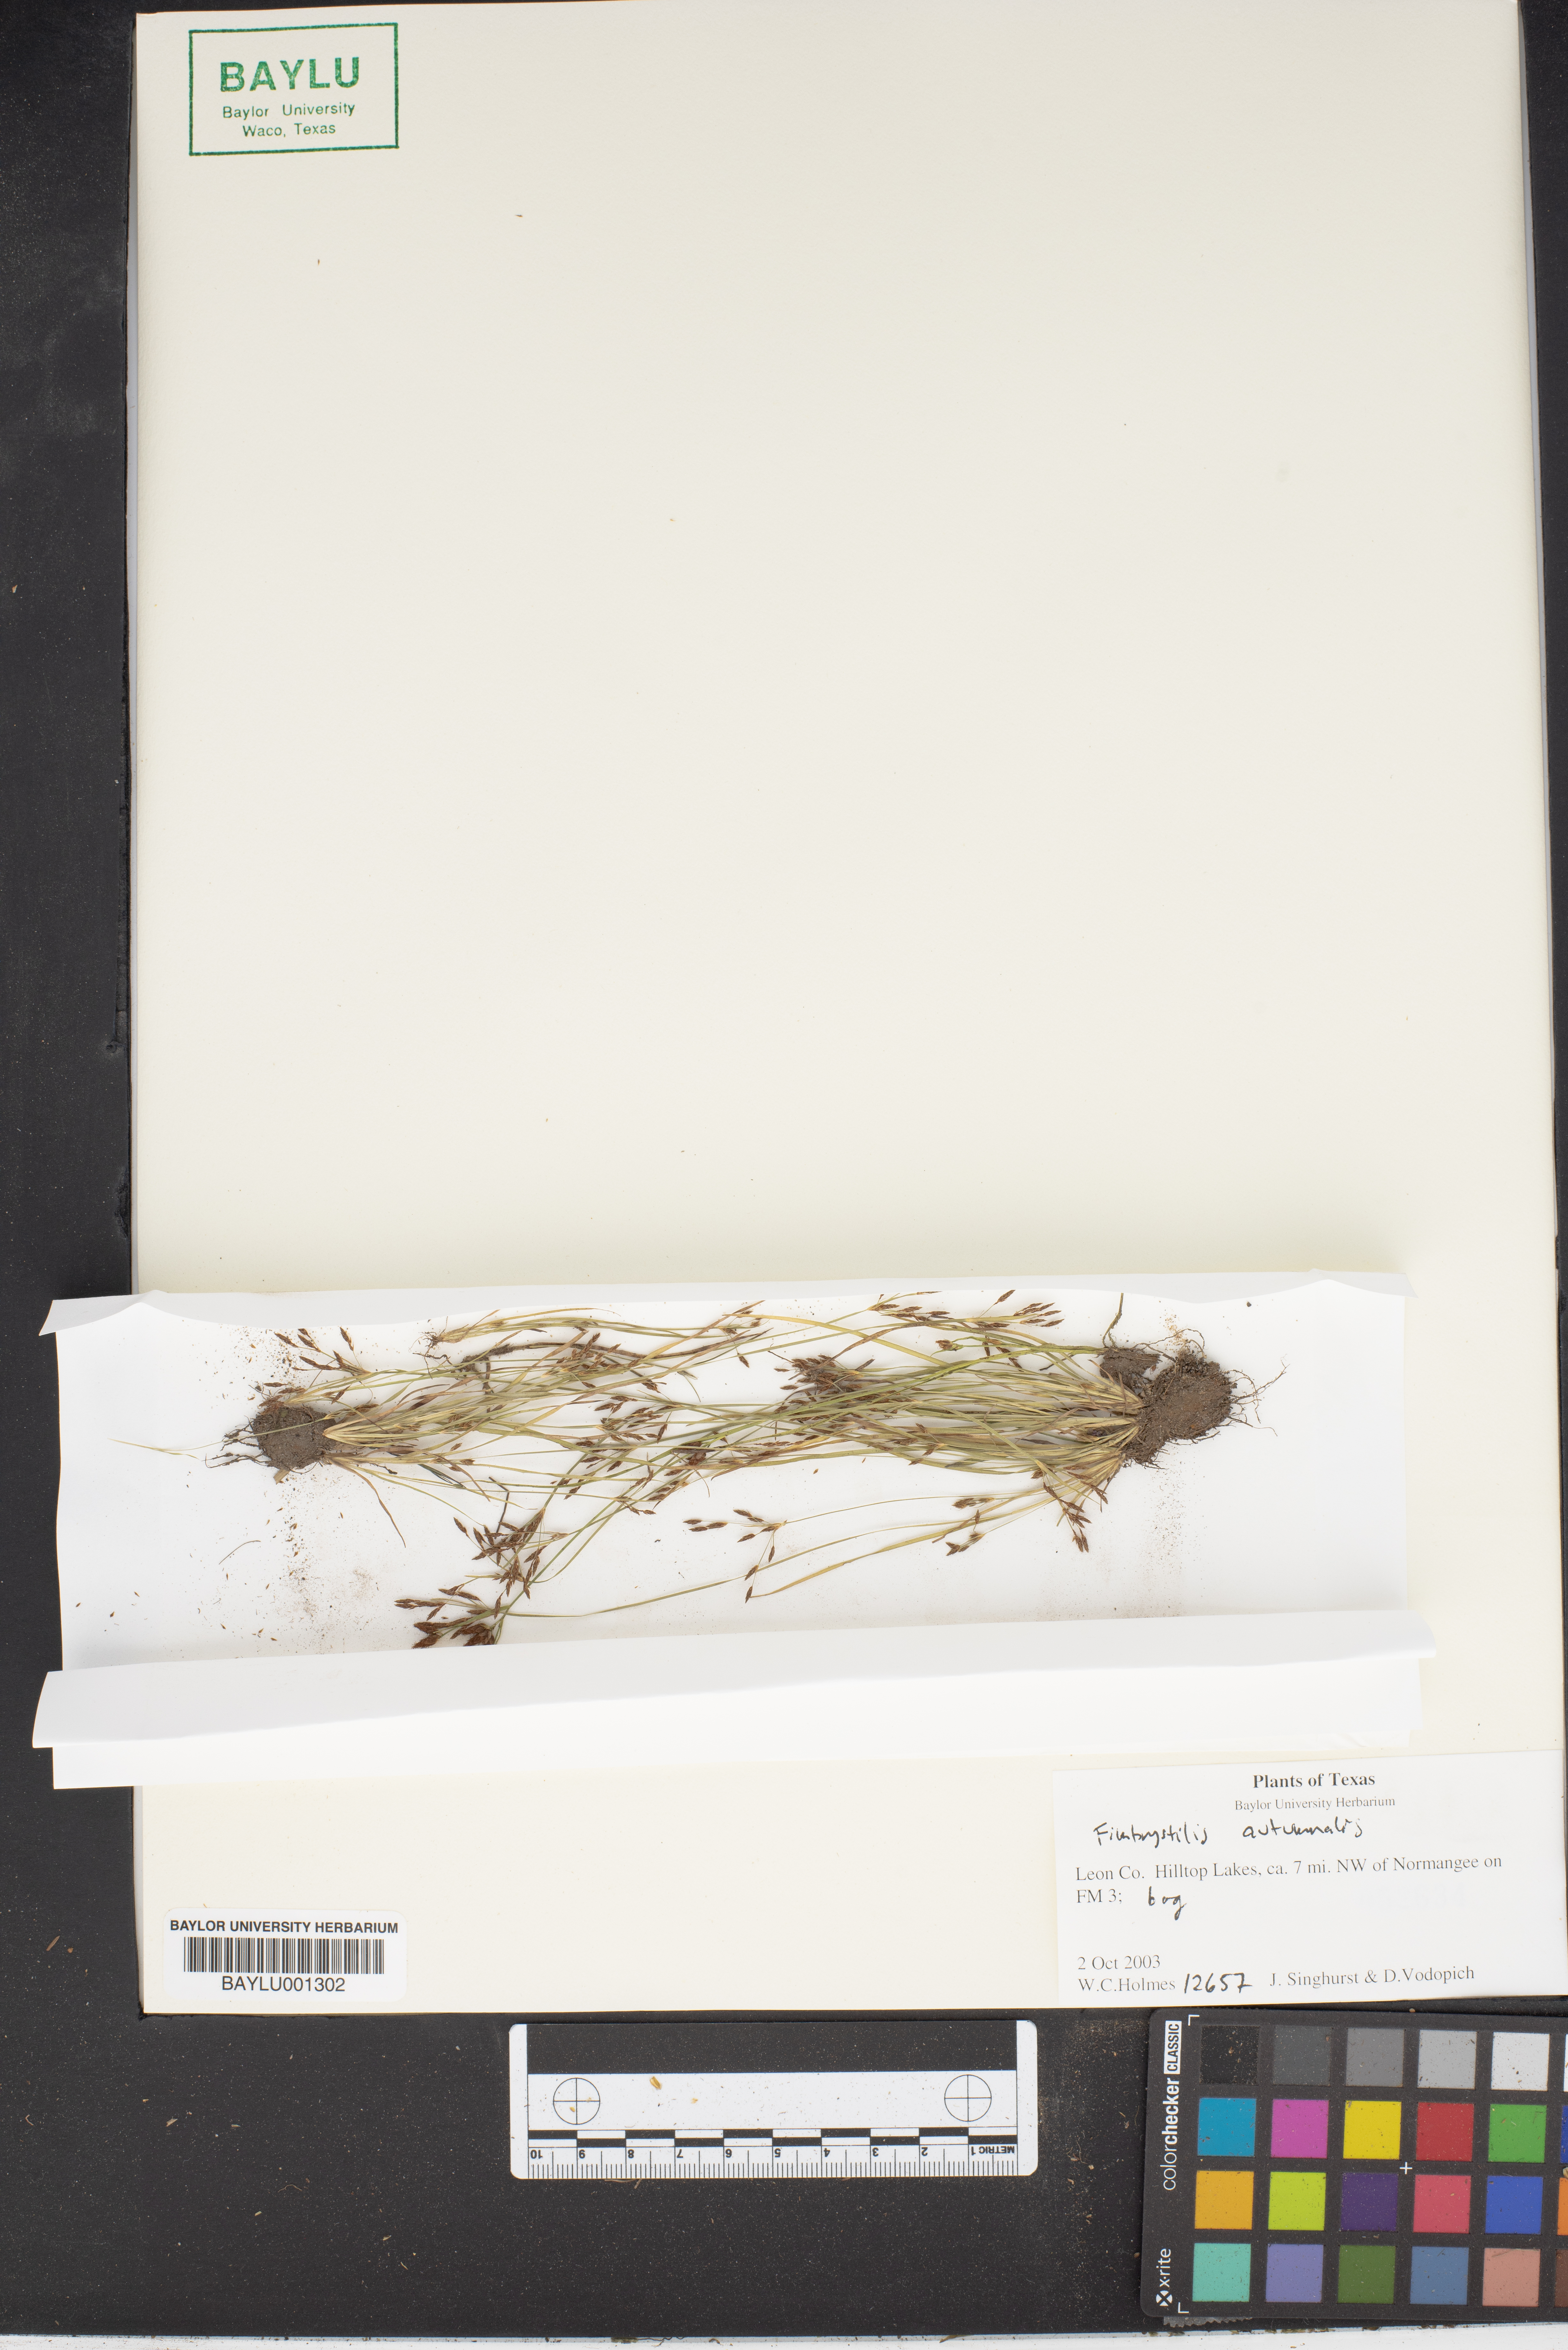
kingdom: Plantae
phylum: Tracheophyta
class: Liliopsida
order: Poales
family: Cyperaceae
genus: Fimbristylis
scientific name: Fimbristylis autumnalis
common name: Slender fimbristylis
